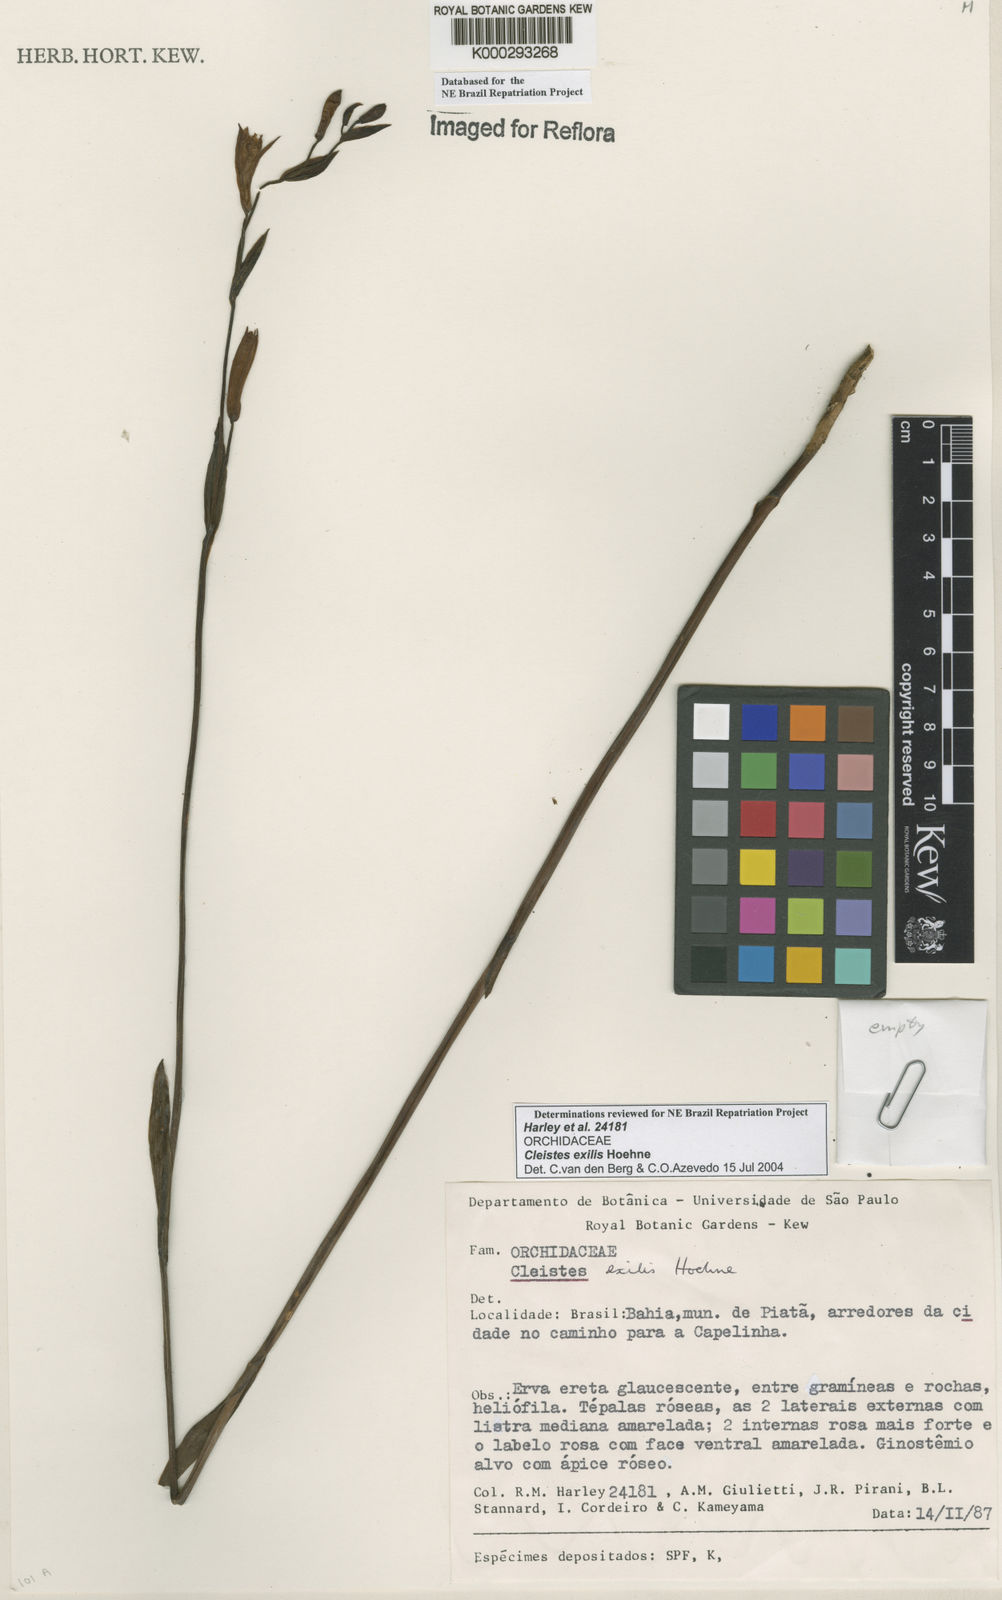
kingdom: Plantae
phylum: Tracheophyta
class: Liliopsida
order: Asparagales
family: Orchidaceae
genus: Cleistes
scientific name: Cleistes exilis
